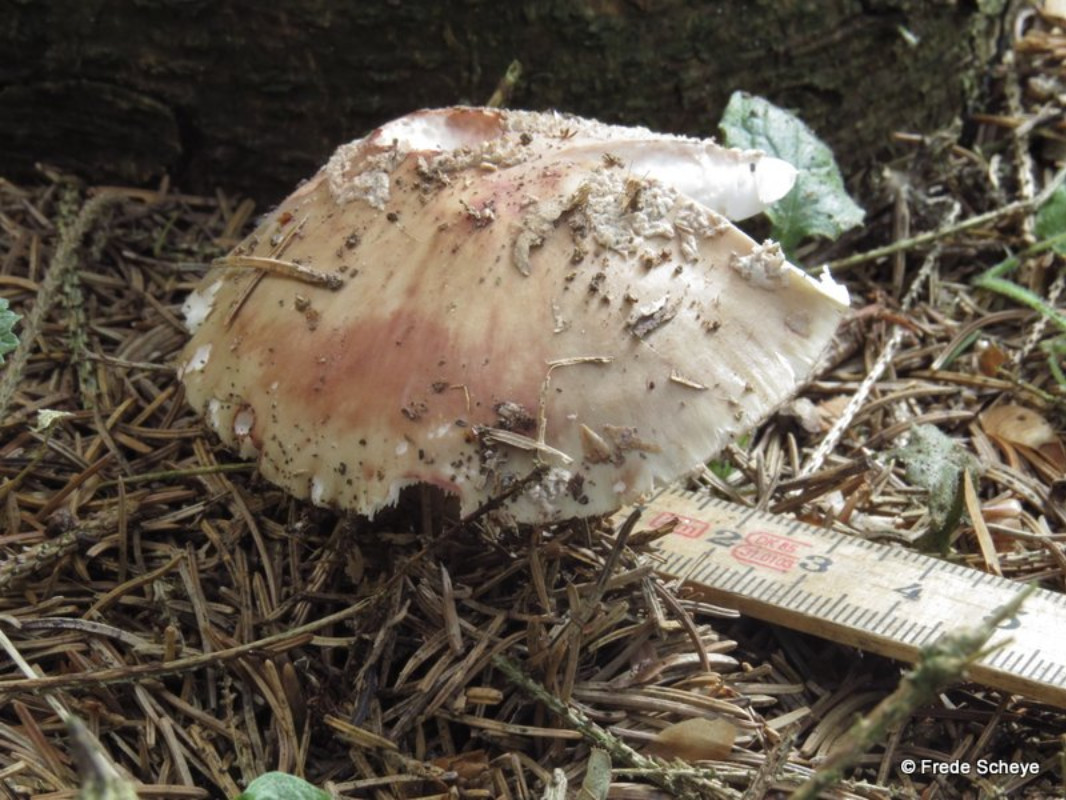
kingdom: Fungi
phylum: Basidiomycota
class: Agaricomycetes
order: Agaricales
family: Amanitaceae
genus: Amanita
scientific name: Amanita rubescens
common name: rødmende fluesvamp
